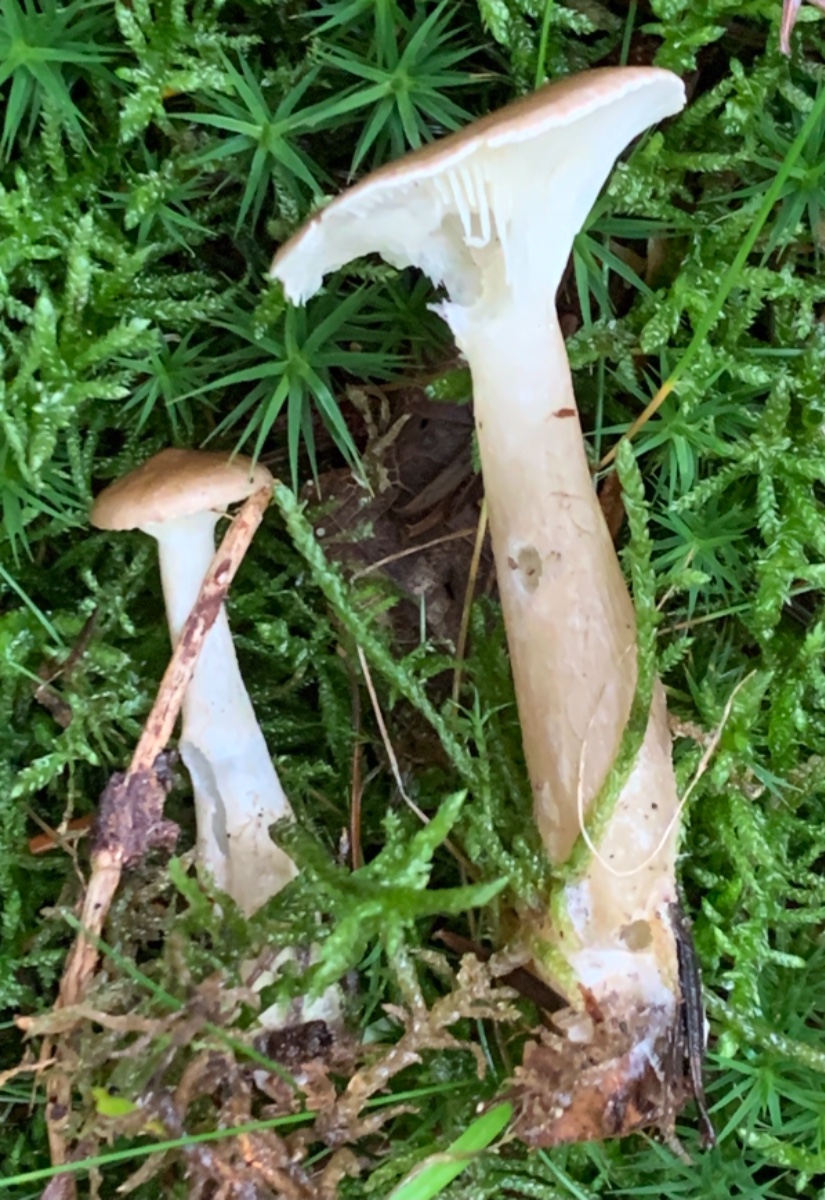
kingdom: Fungi
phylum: Basidiomycota
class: Agaricomycetes
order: Agaricales
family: Hygrophoraceae
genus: Ampulloclitocybe
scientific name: Ampulloclitocybe clavipes
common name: køllefod
